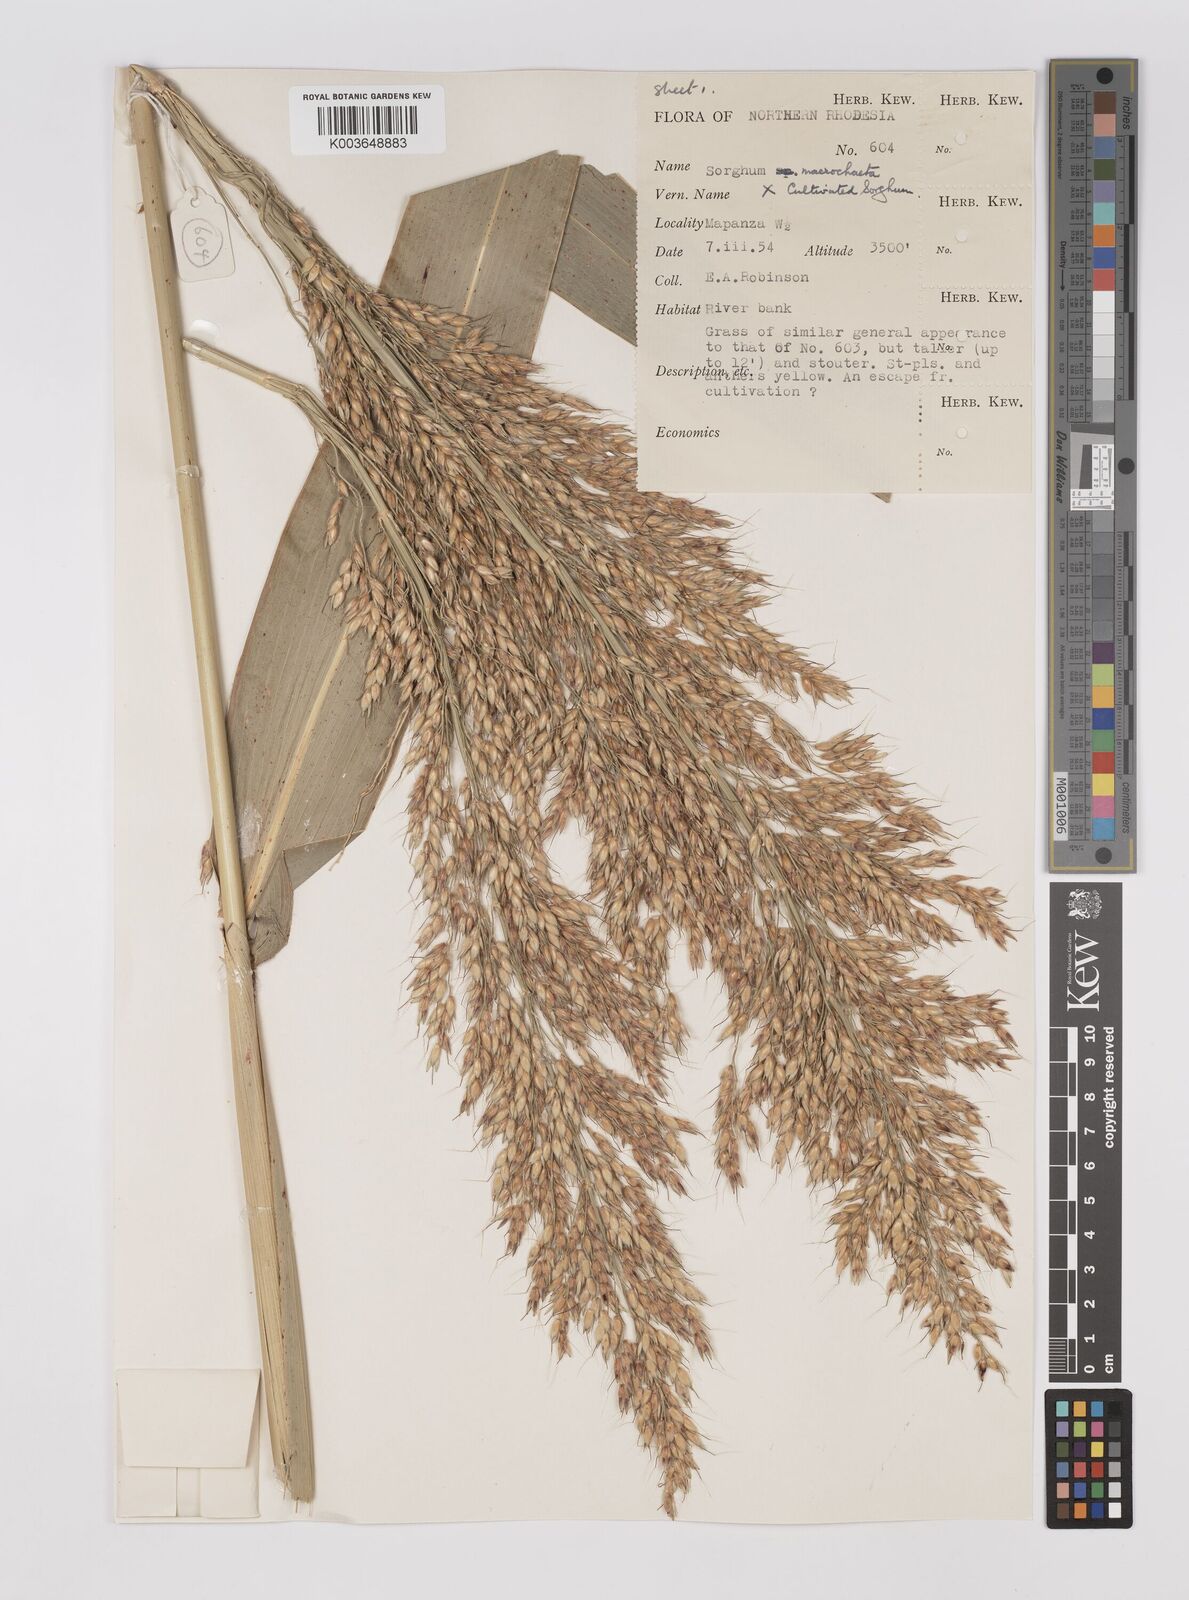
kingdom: Plantae
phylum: Tracheophyta
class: Liliopsida
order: Poales
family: Poaceae
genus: Sorghum
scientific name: Sorghum drummondii
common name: Sudangrass
